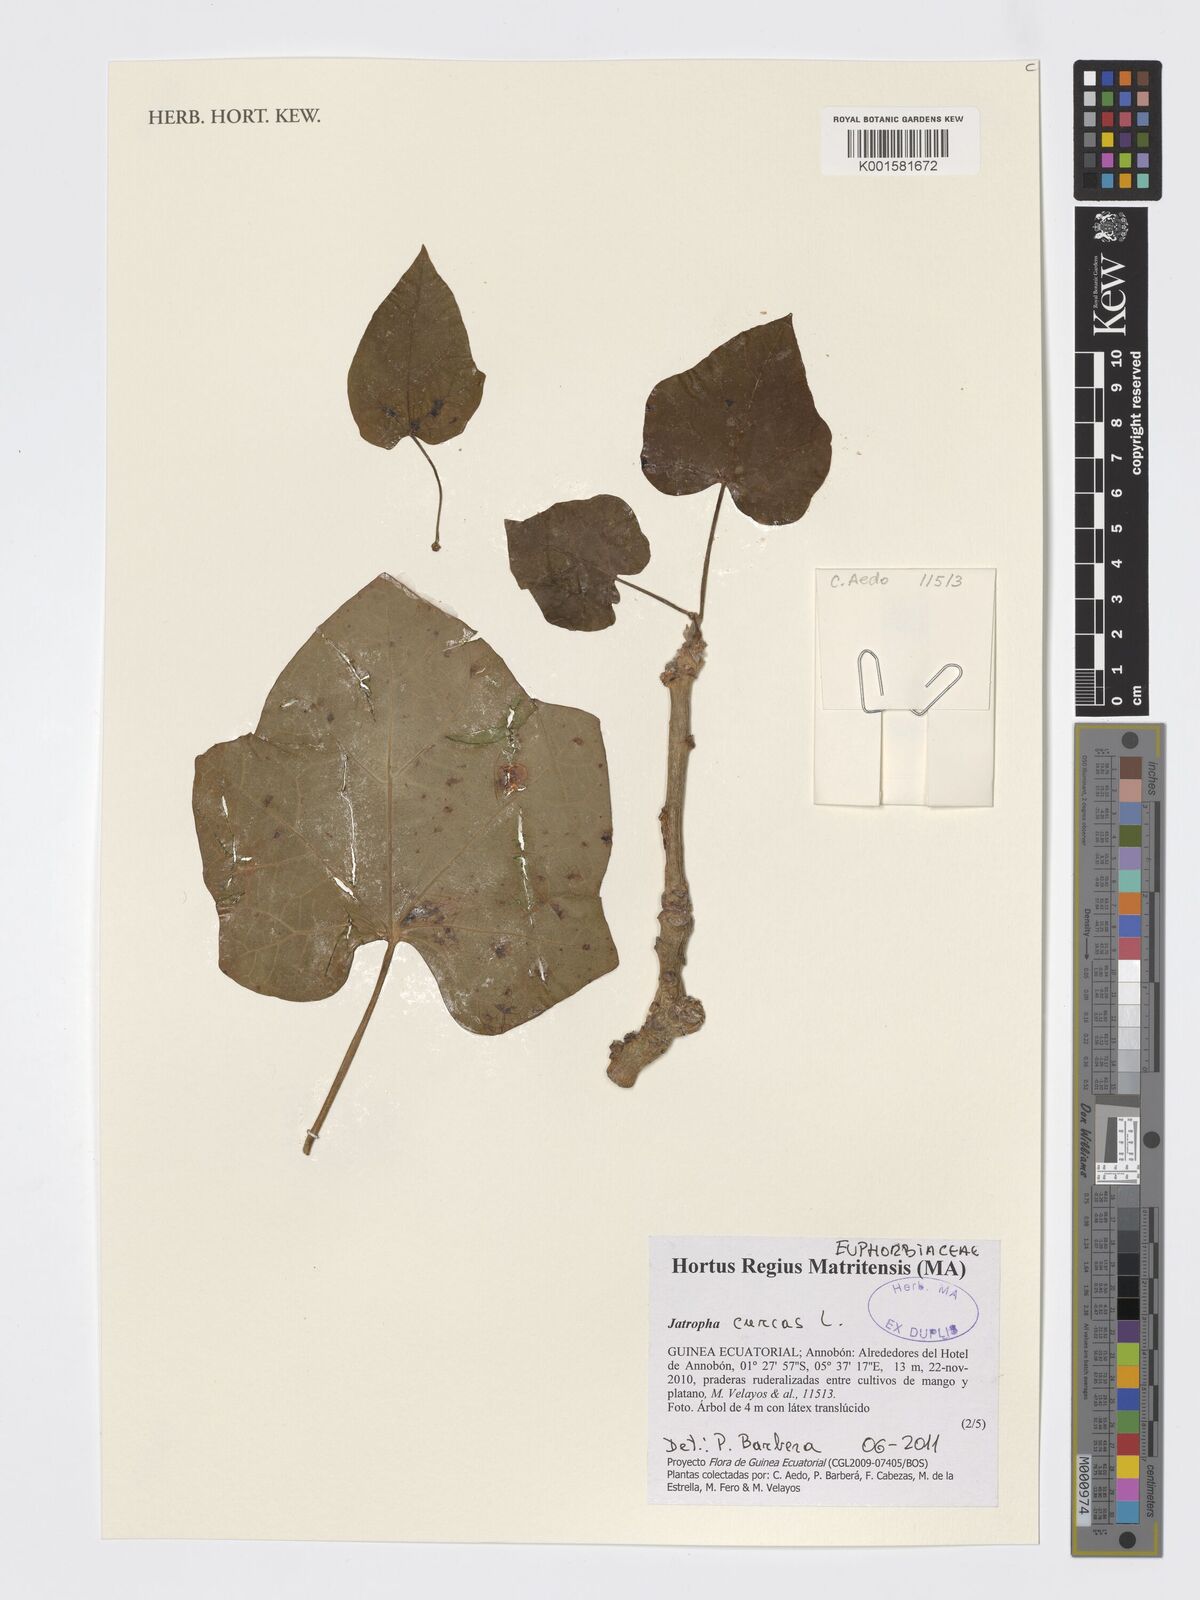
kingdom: Plantae
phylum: Tracheophyta
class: Magnoliopsida
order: Malpighiales
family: Euphorbiaceae
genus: Jatropha
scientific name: Jatropha curcas
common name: Barbados nut
